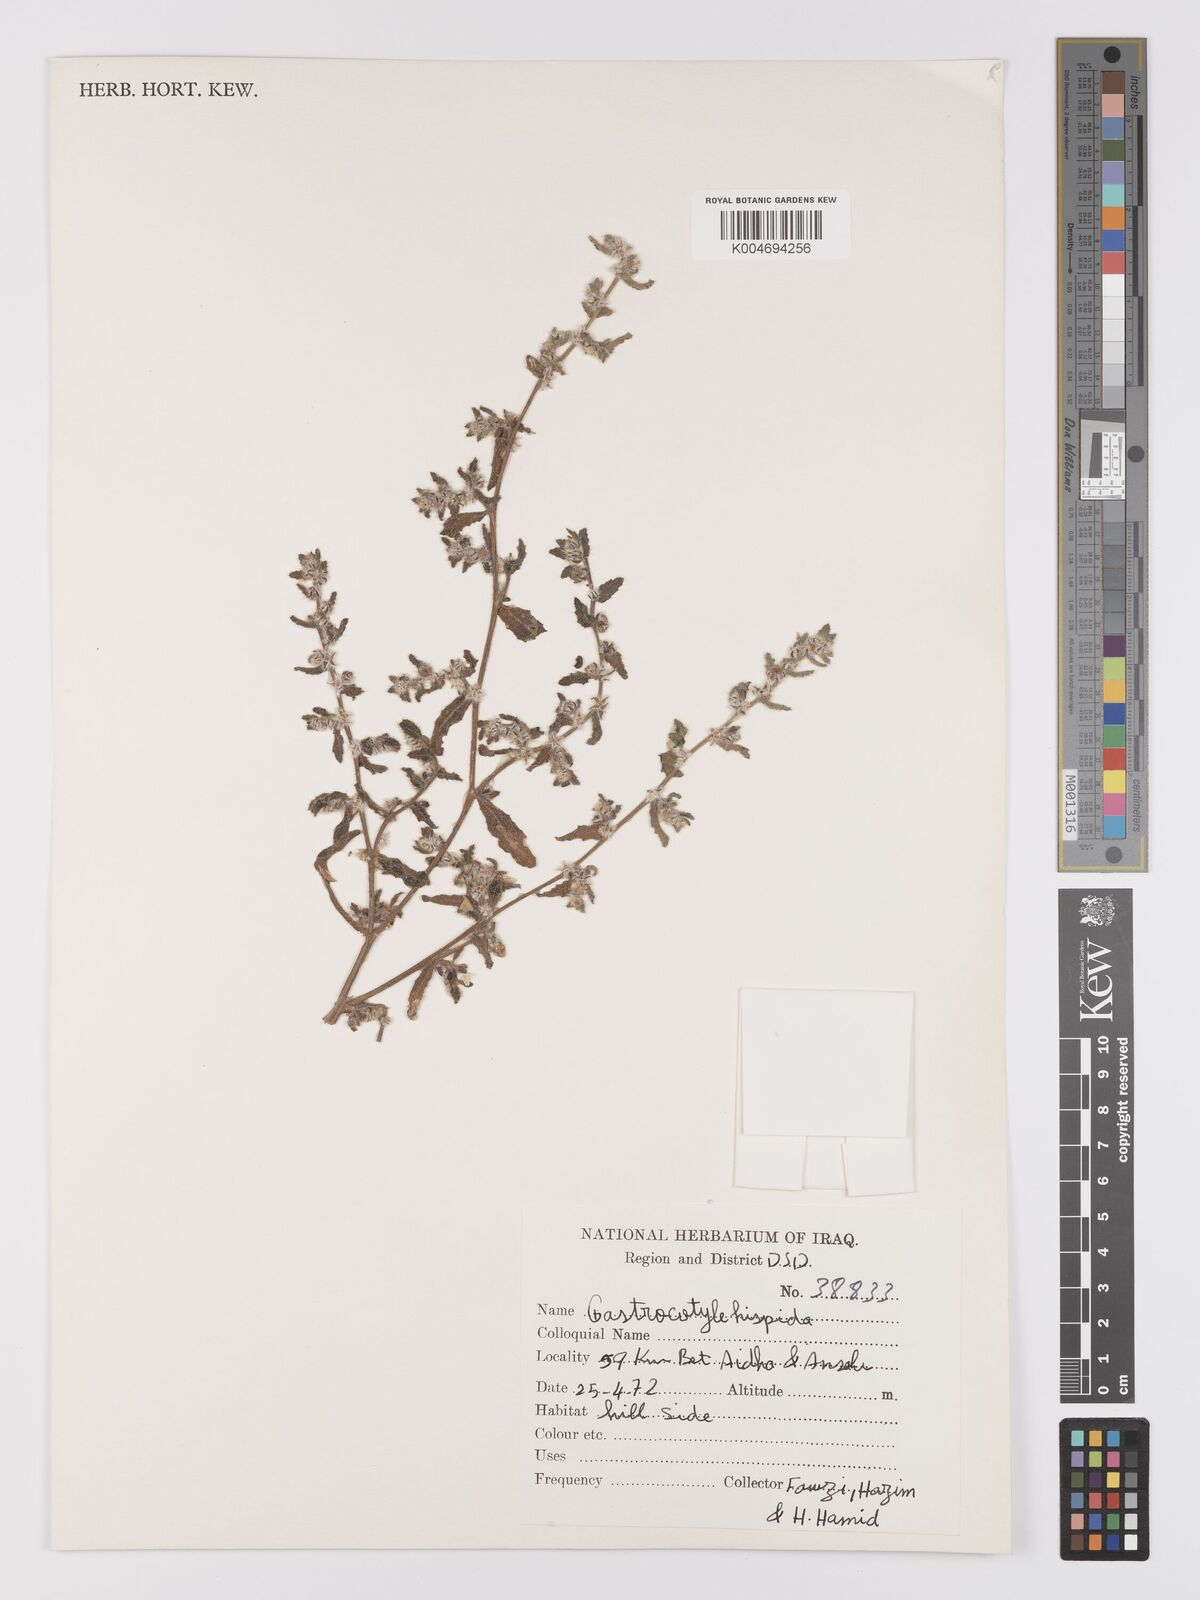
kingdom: Plantae
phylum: Tracheophyta
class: Magnoliopsida
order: Boraginales
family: Boraginaceae
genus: Gastrocotyle
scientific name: Gastrocotyle hispida
